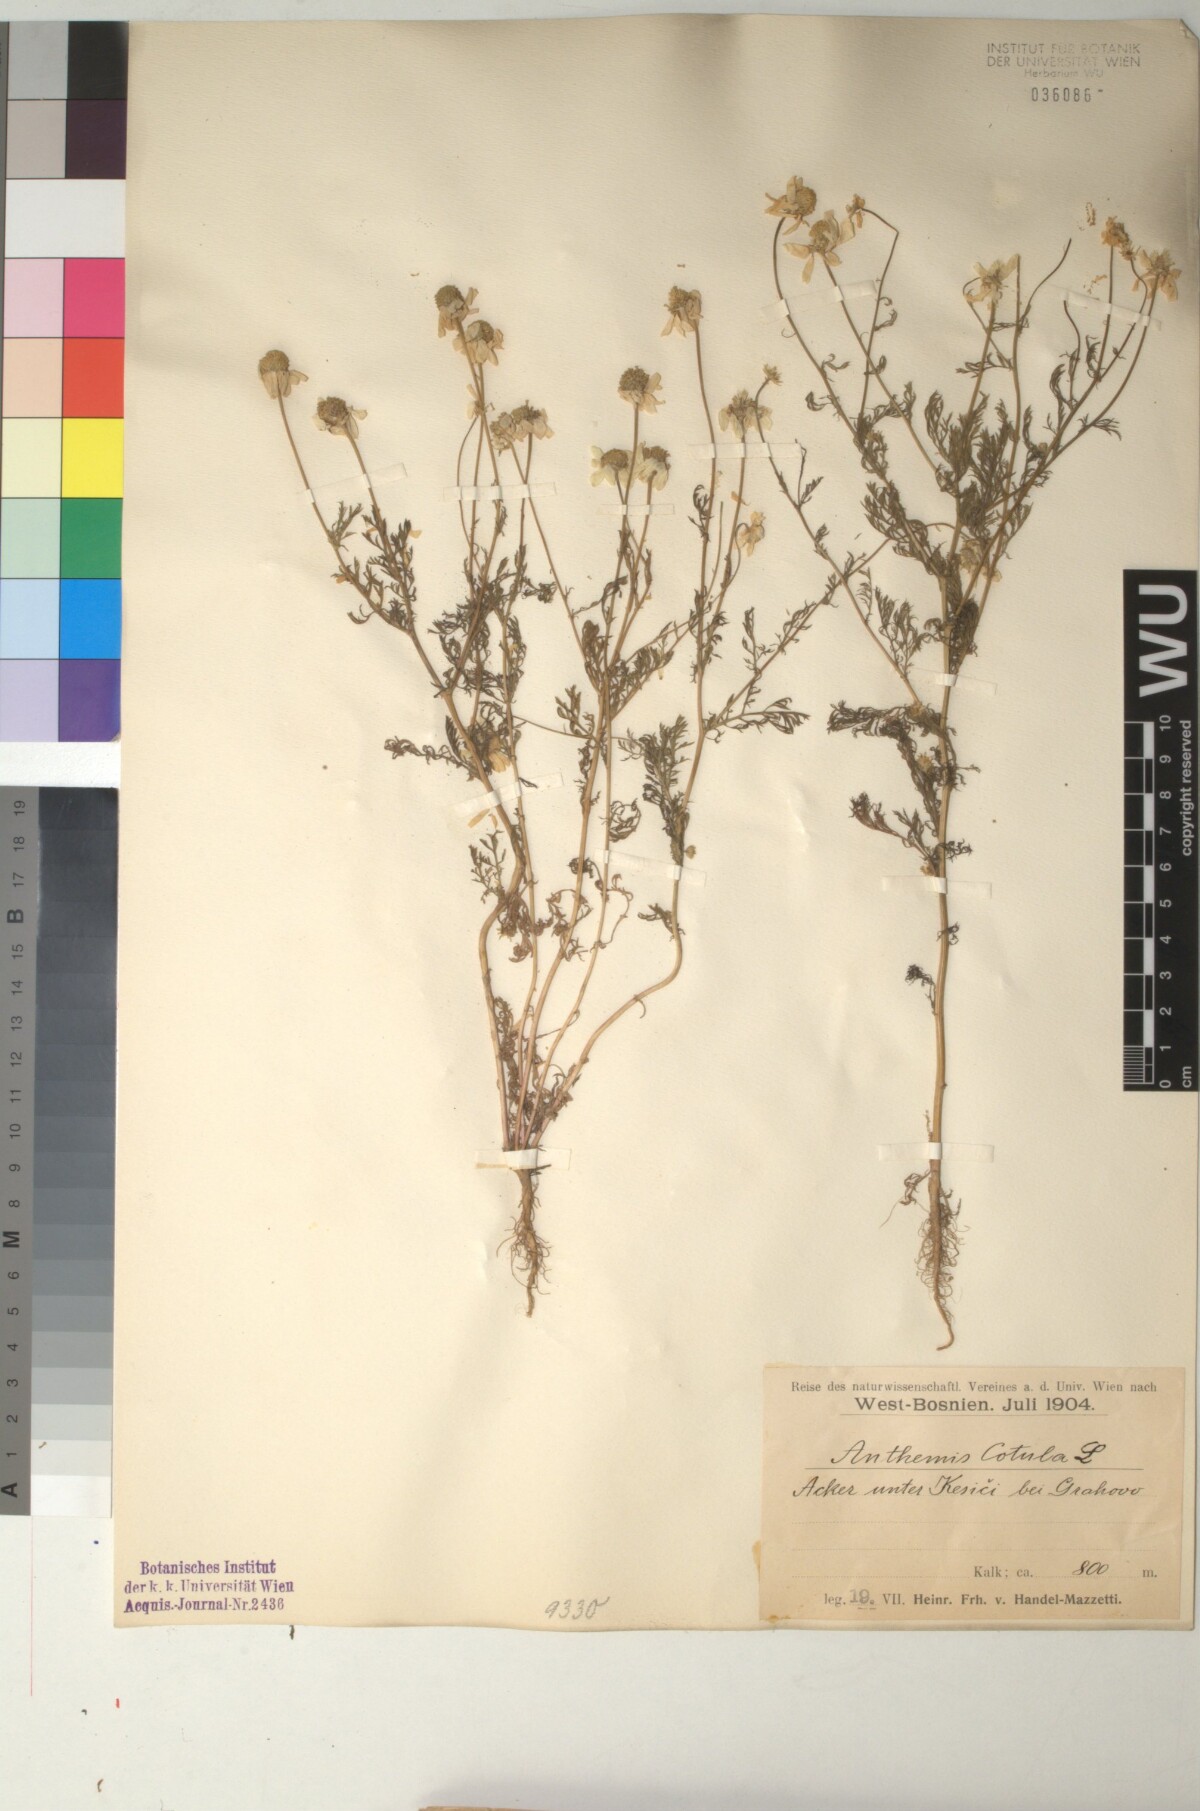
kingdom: Plantae
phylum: Tracheophyta
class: Magnoliopsida
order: Asterales
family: Asteraceae
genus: Anthemis
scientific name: Anthemis cotula
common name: Stinking chamomile
